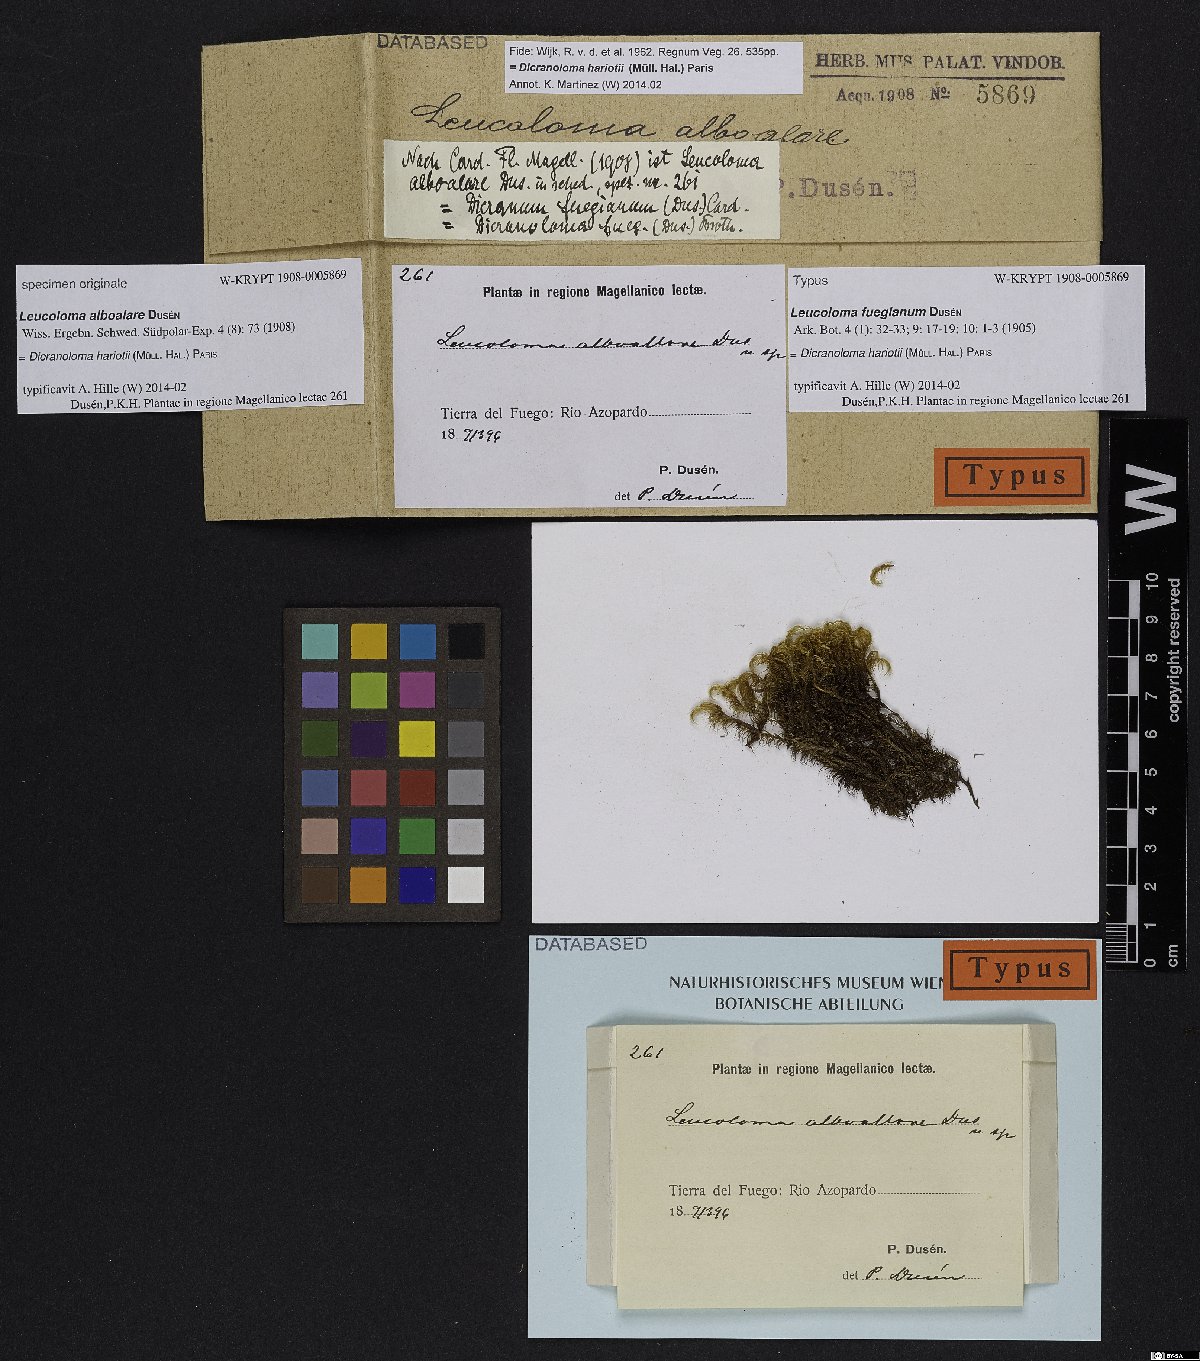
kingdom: Plantae
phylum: Bryophyta
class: Bryopsida
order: Dicranales
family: Dicranaceae
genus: Dicranoloma
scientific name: Dicranoloma hariotii
